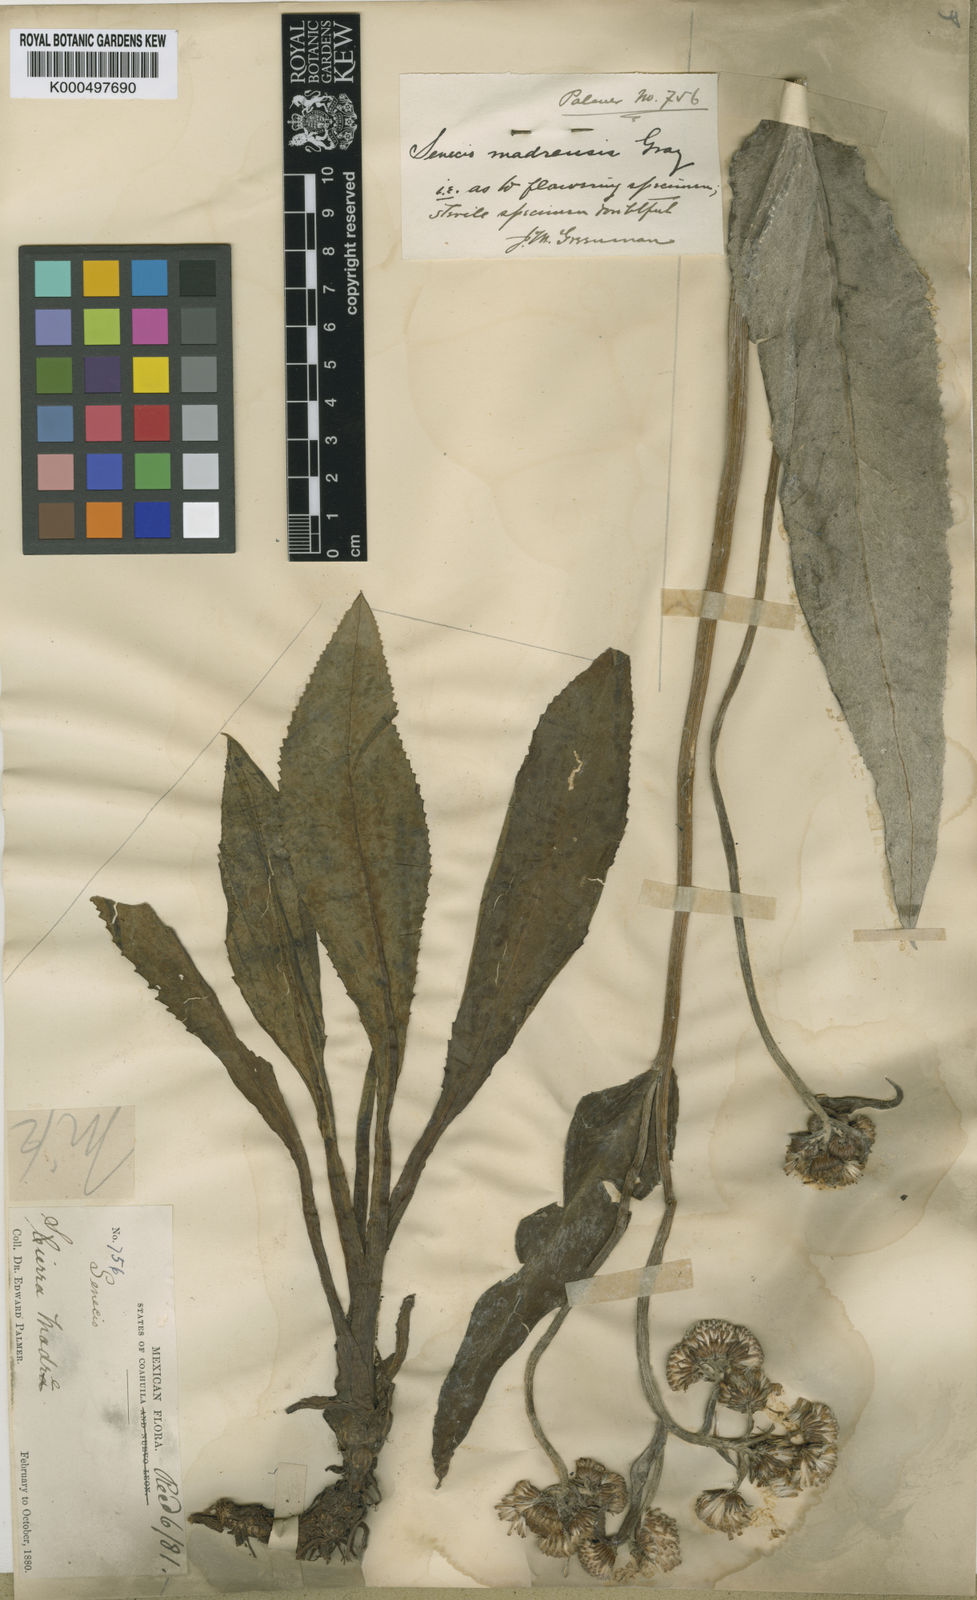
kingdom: Plantae
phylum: Tracheophyta
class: Magnoliopsida
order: Asterales
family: Asteraceae
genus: Senecio
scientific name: Senecio madrensis
